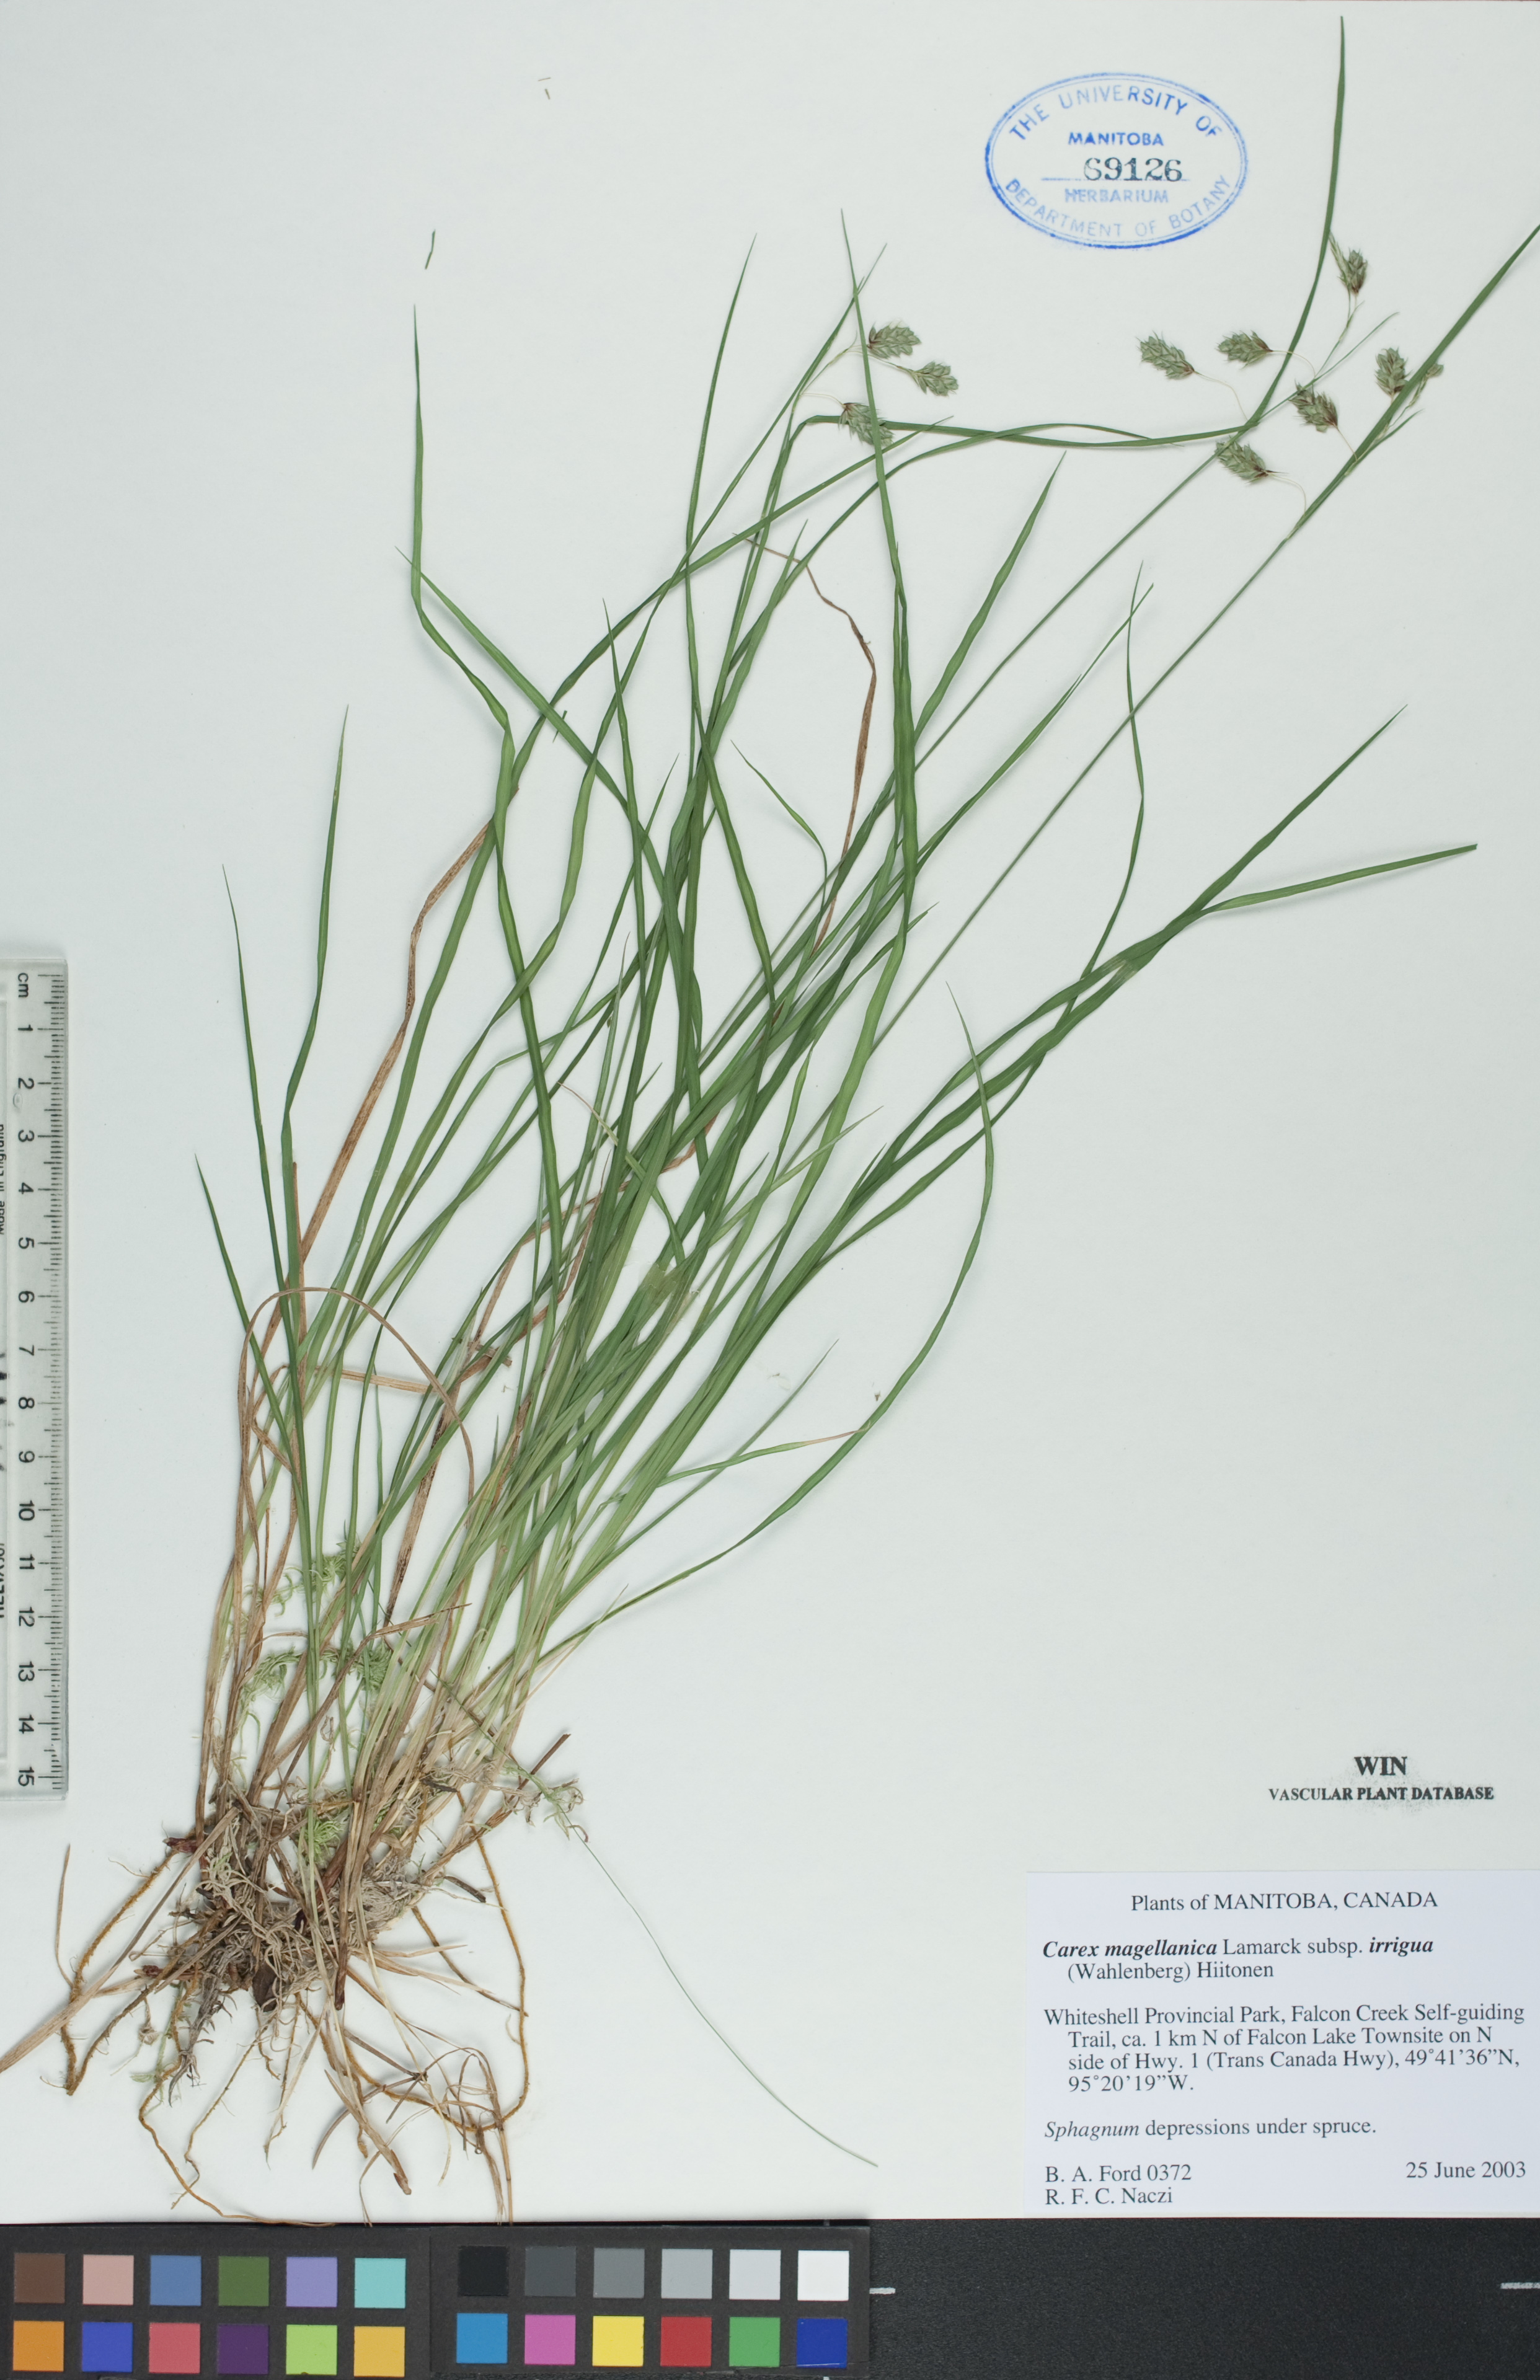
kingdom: Plantae
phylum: Tracheophyta
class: Liliopsida
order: Poales
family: Cyperaceae
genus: Carex
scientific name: Carex magellanica
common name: Bog sedge
